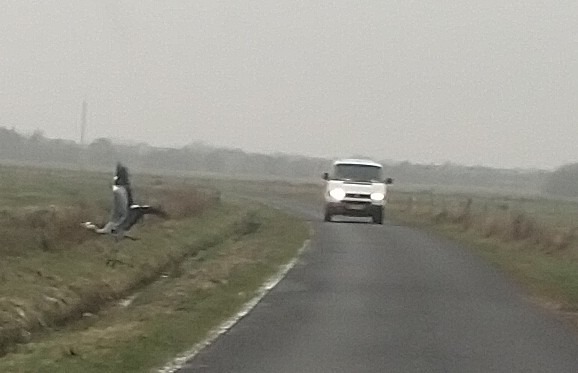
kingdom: Animalia
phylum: Chordata
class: Aves
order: Pelecaniformes
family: Ardeidae
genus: Ardea
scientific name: Ardea cinerea
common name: Fiskehejre
